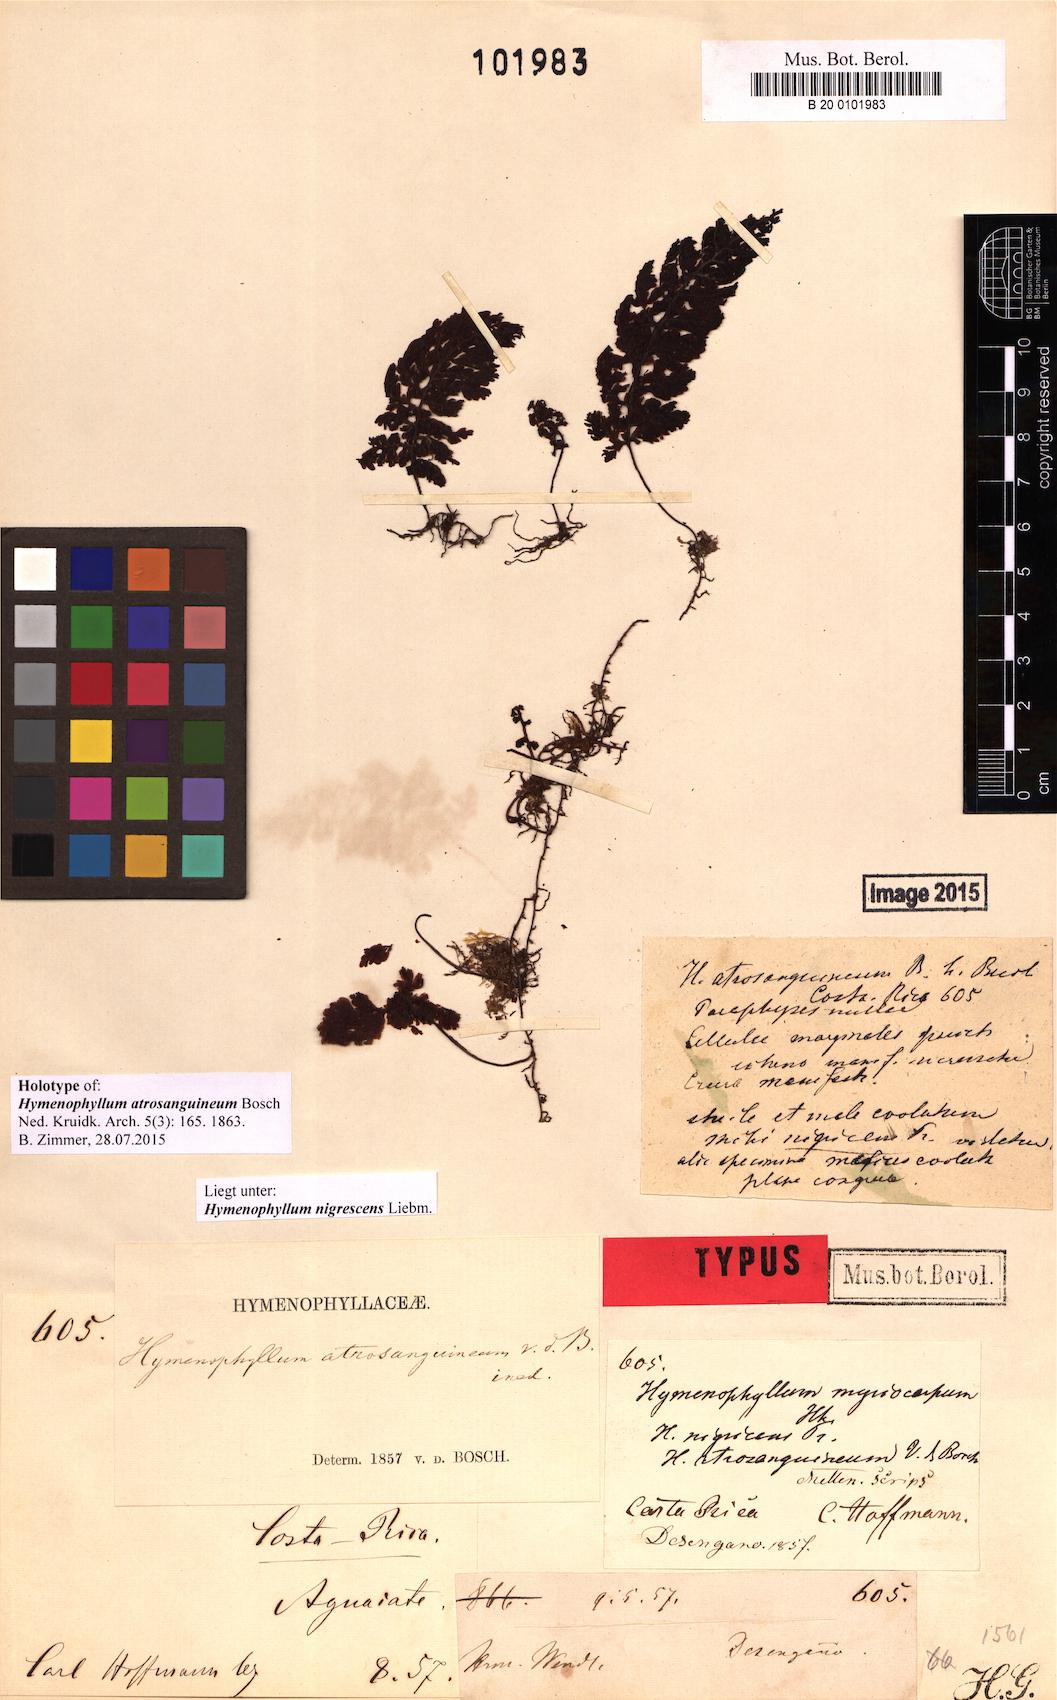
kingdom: Plantae
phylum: Tracheophyta
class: Polypodiopsida
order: Hymenophyllales
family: Hymenophyllaceae
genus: Hymenophyllum
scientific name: Hymenophyllum myriocarpum
